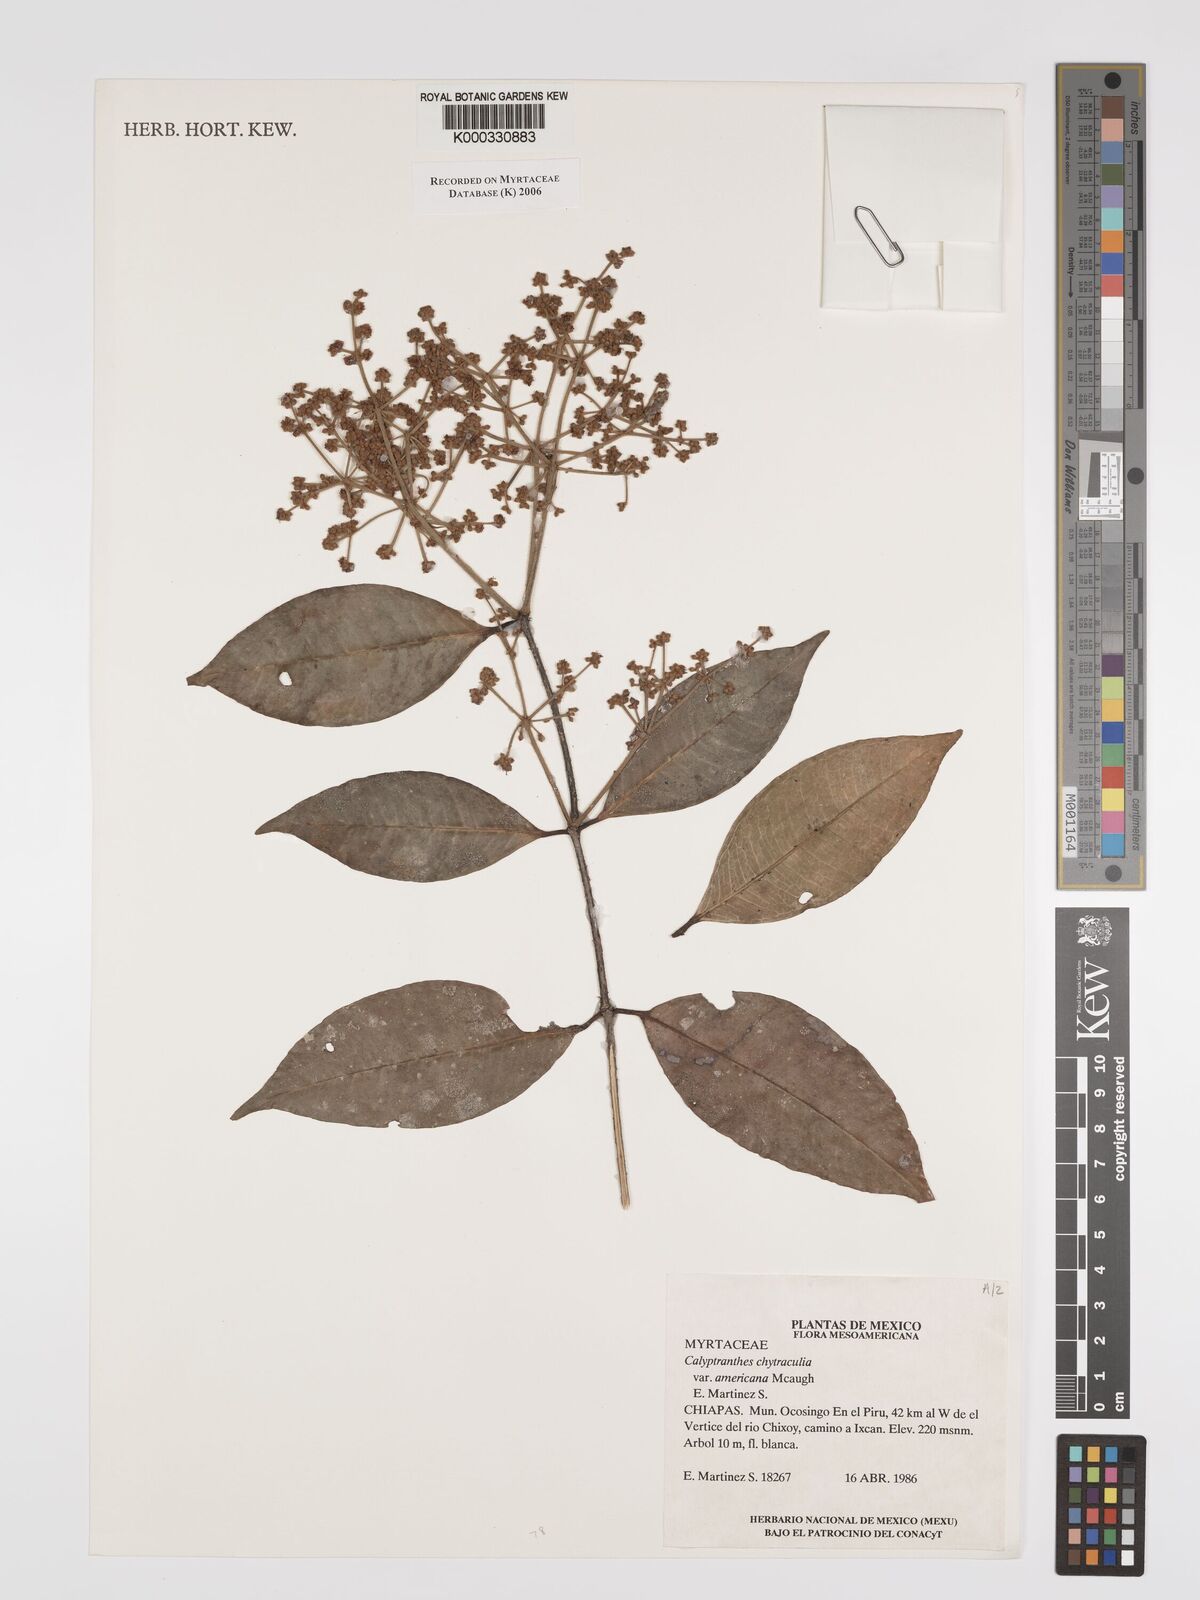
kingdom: Plantae
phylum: Tracheophyta
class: Magnoliopsida
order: Myrtales
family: Myrtaceae
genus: Myrcia
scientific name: Myrcia chytraculia
